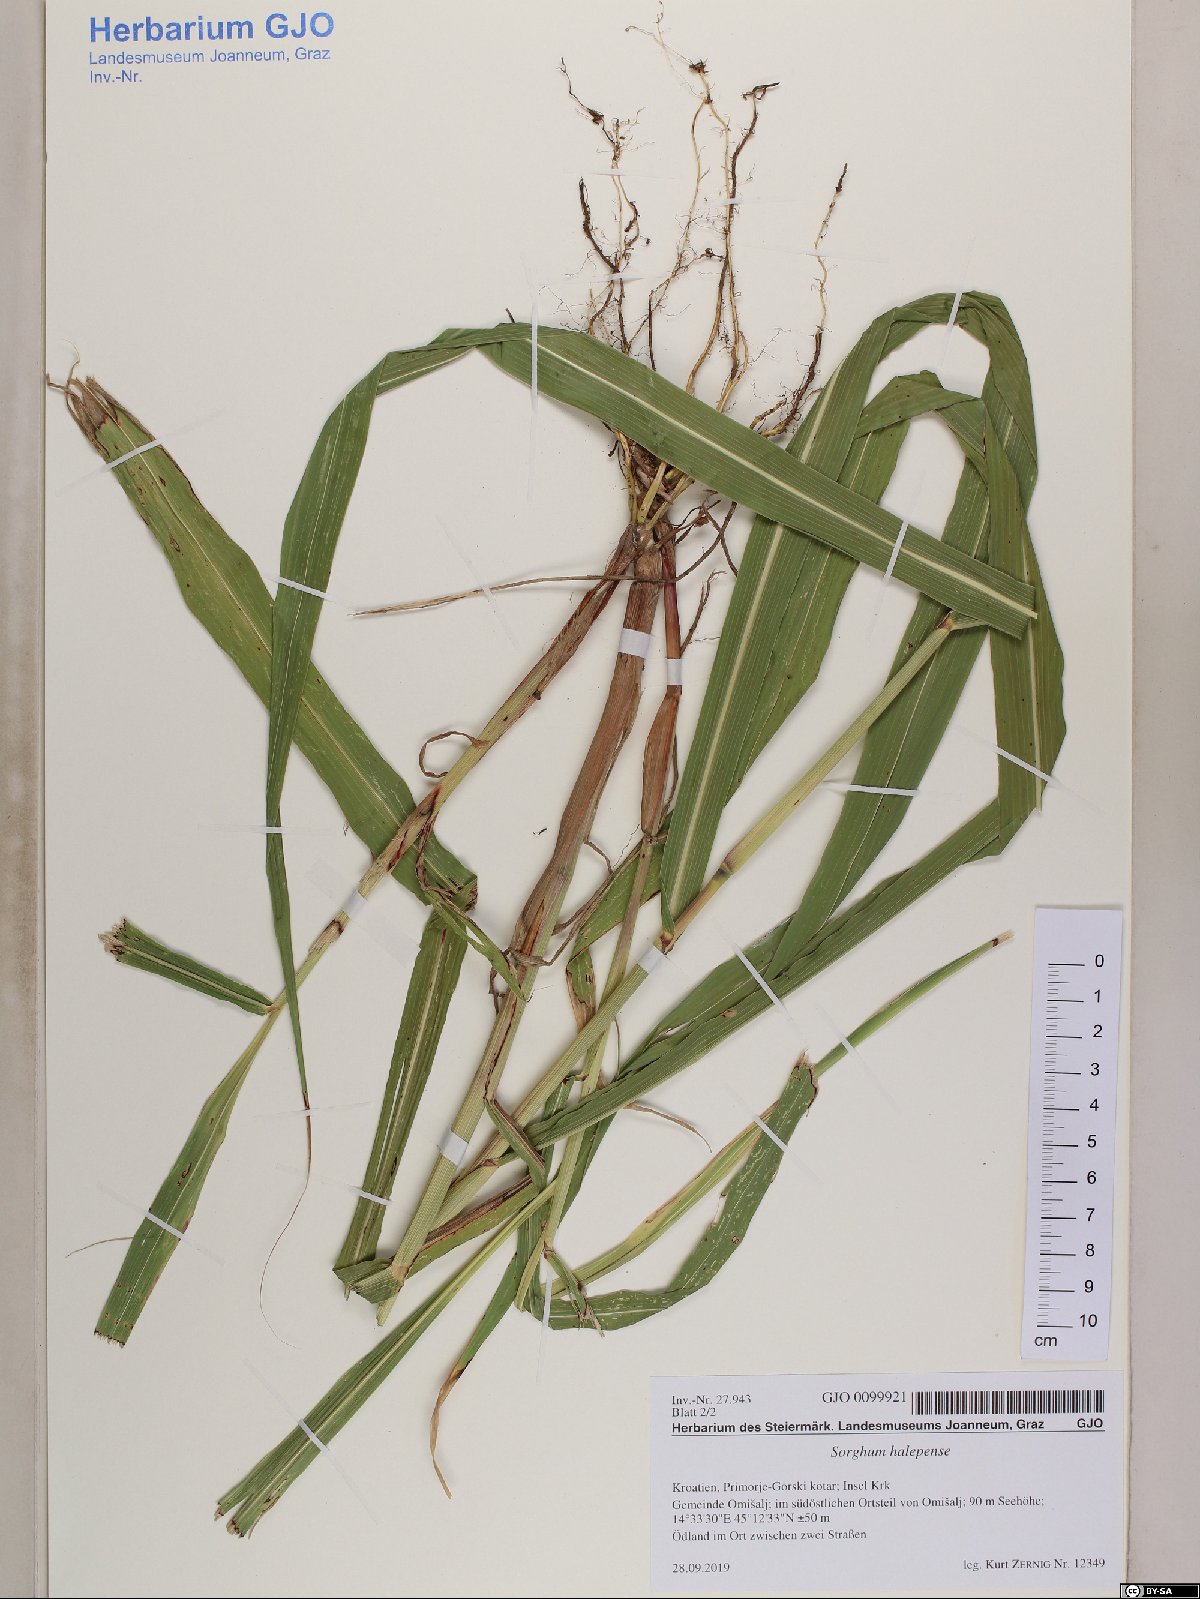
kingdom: Plantae
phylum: Tracheophyta
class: Liliopsida
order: Poales
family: Poaceae
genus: Sorghum
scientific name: Sorghum halepense
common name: Johnson-grass
